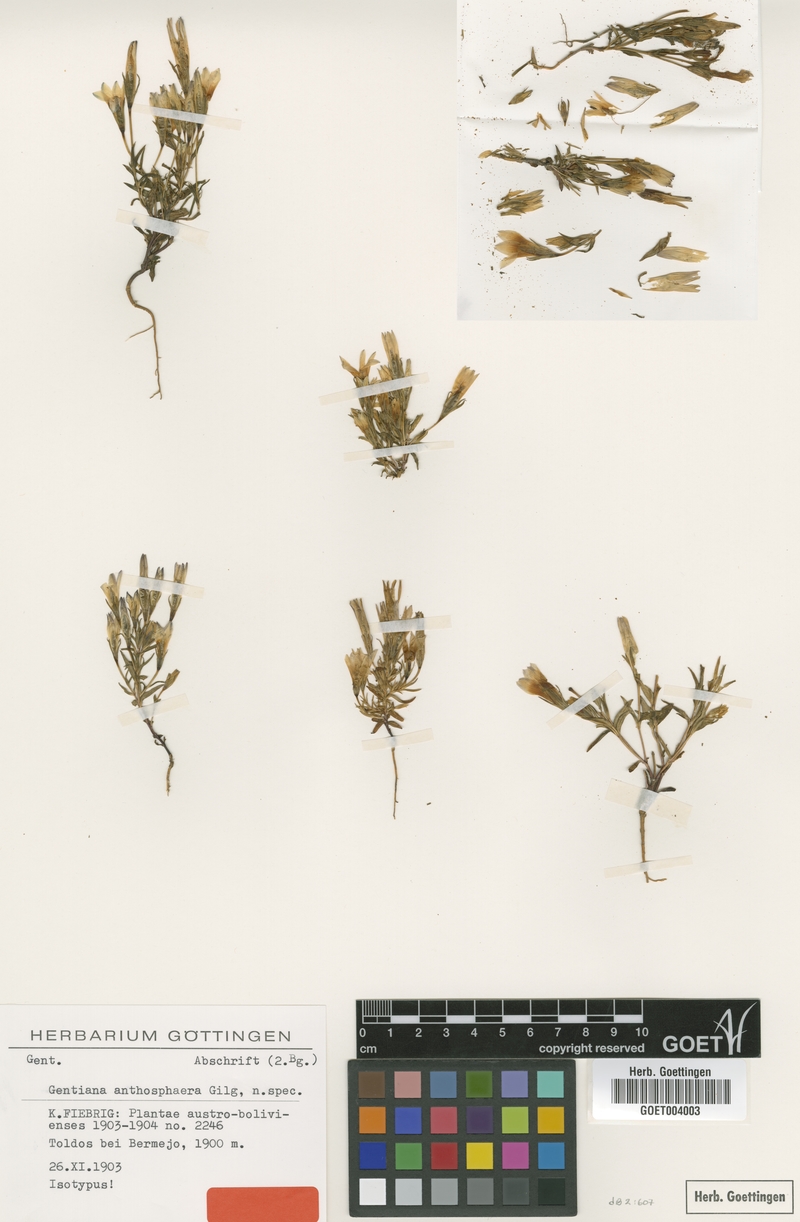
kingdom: Plantae
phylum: Tracheophyta
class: Magnoliopsida
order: Gentianales
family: Gentianaceae
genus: Gentianella
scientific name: Gentianella silenoides
